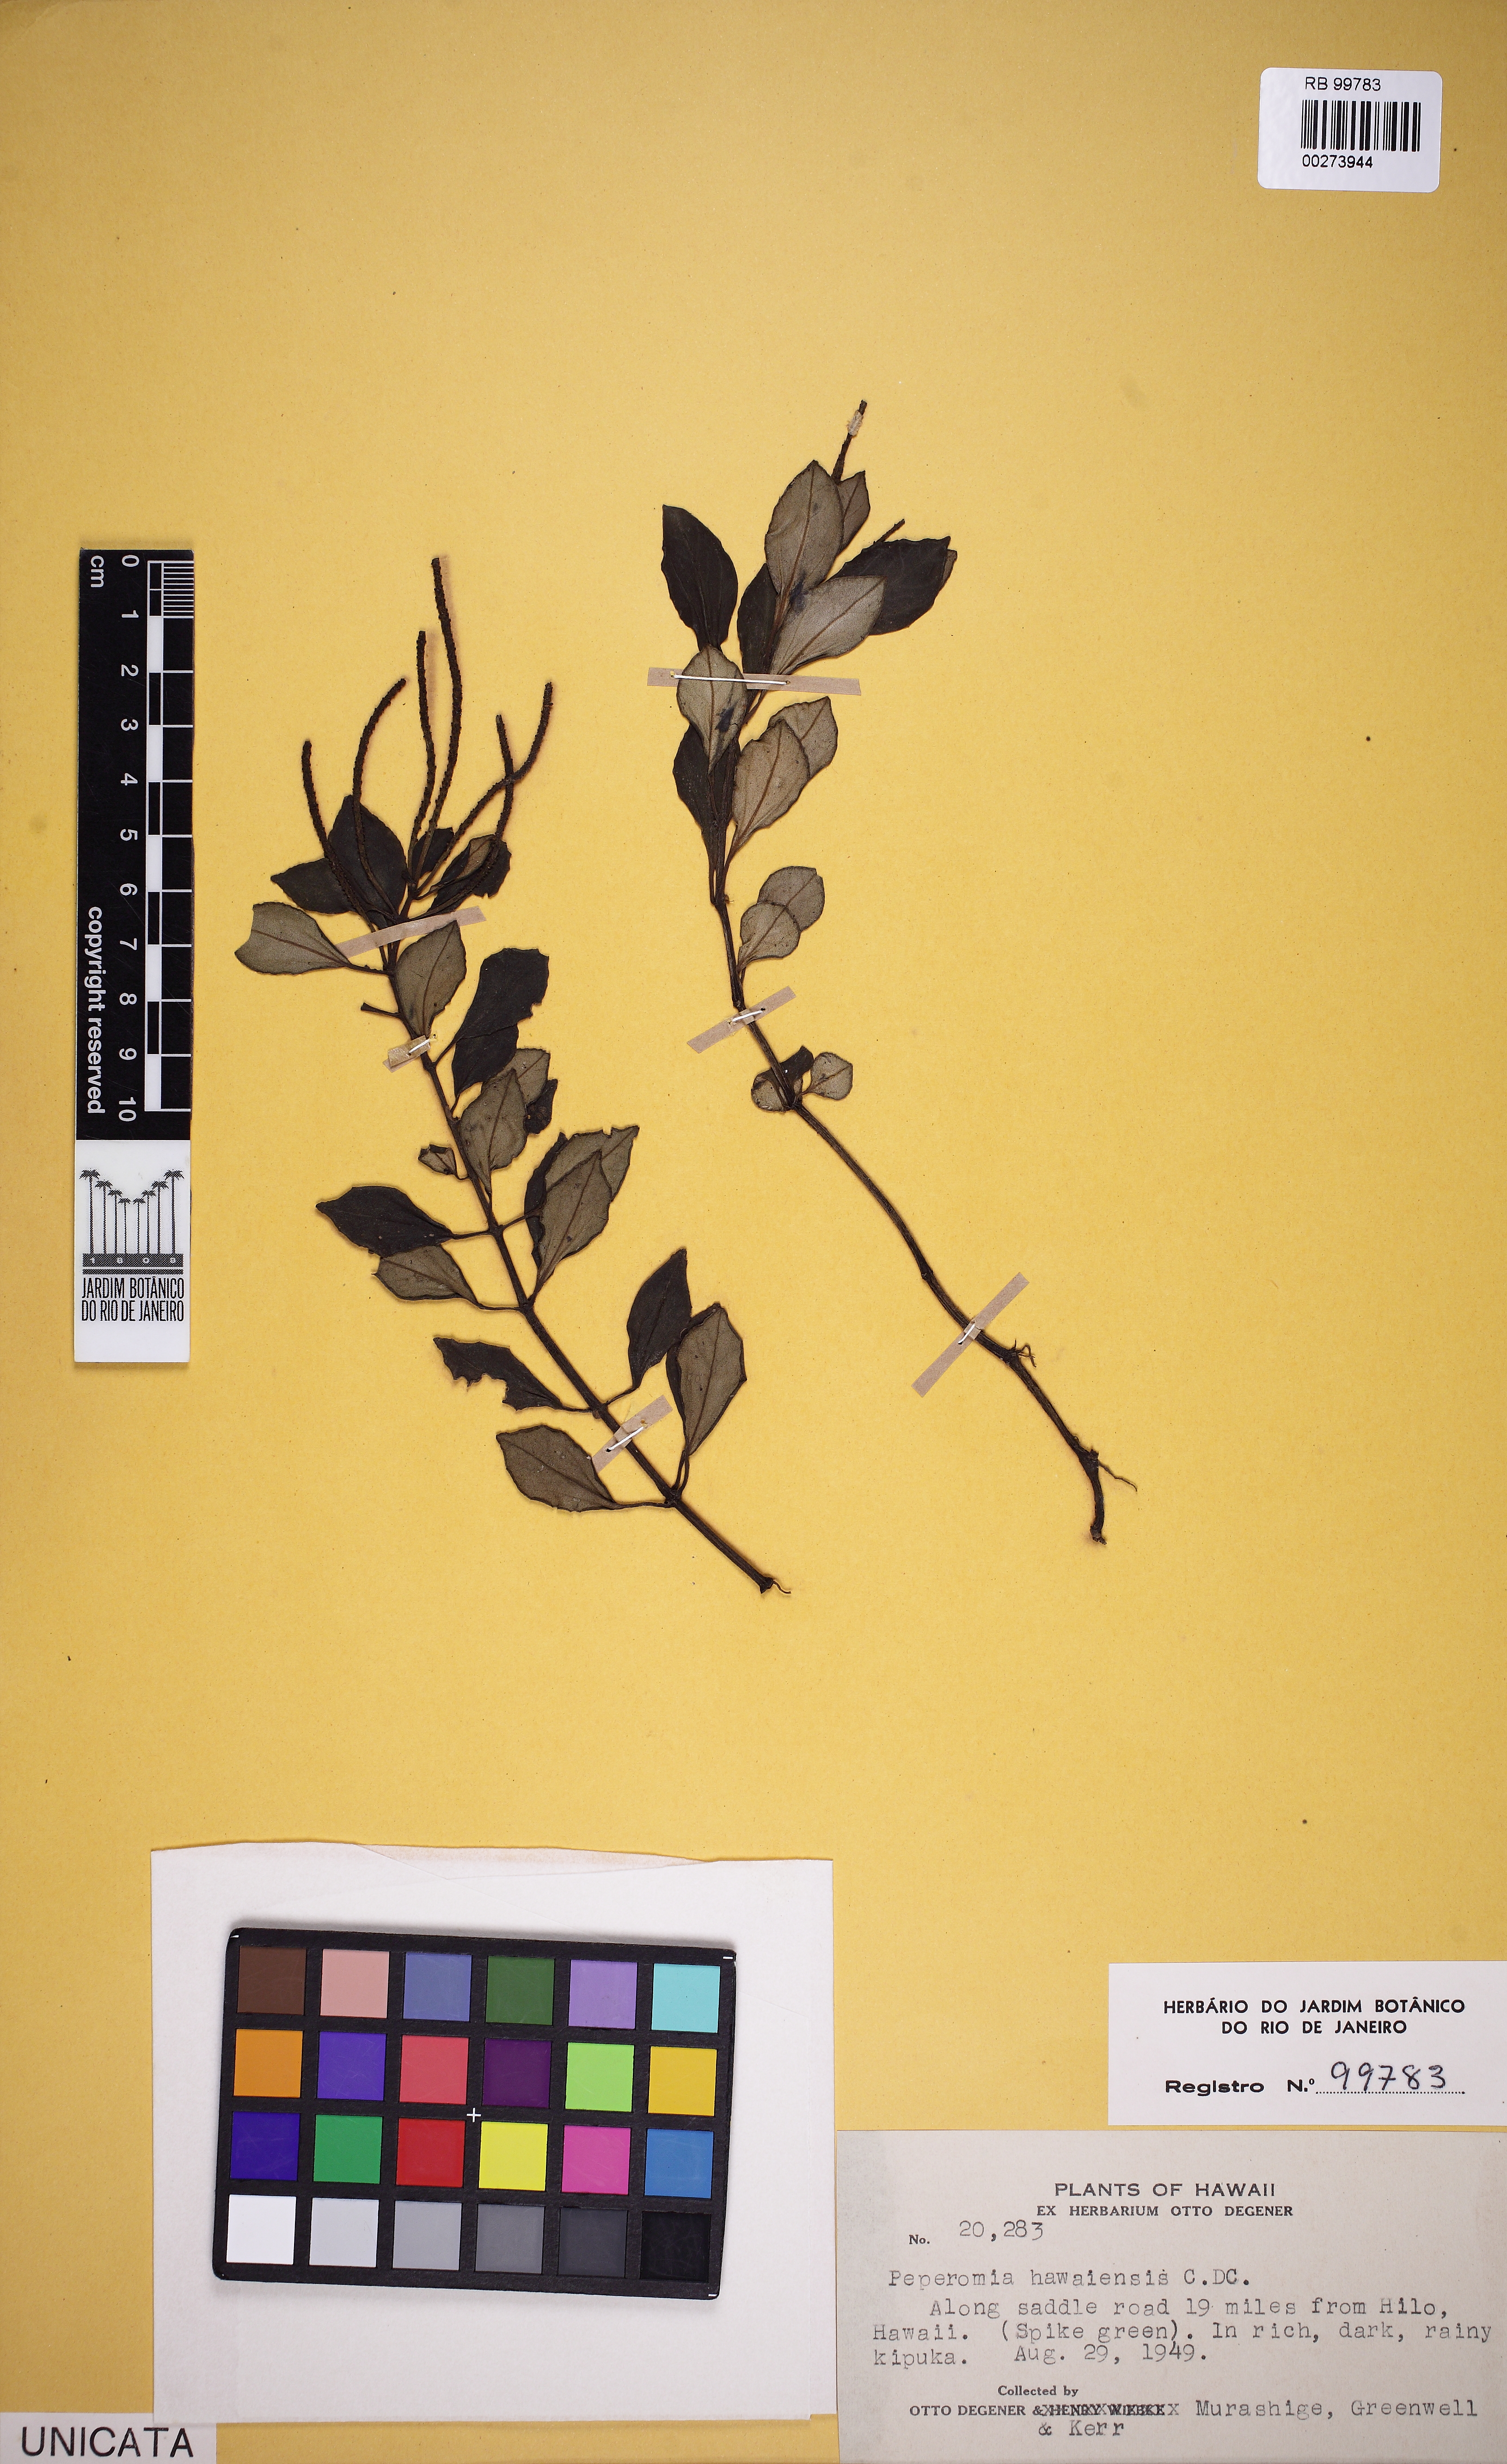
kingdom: Plantae
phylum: Tracheophyta
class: Magnoliopsida
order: Piperales
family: Piperaceae
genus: Peperomia
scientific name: Peperomia hypoleuca
